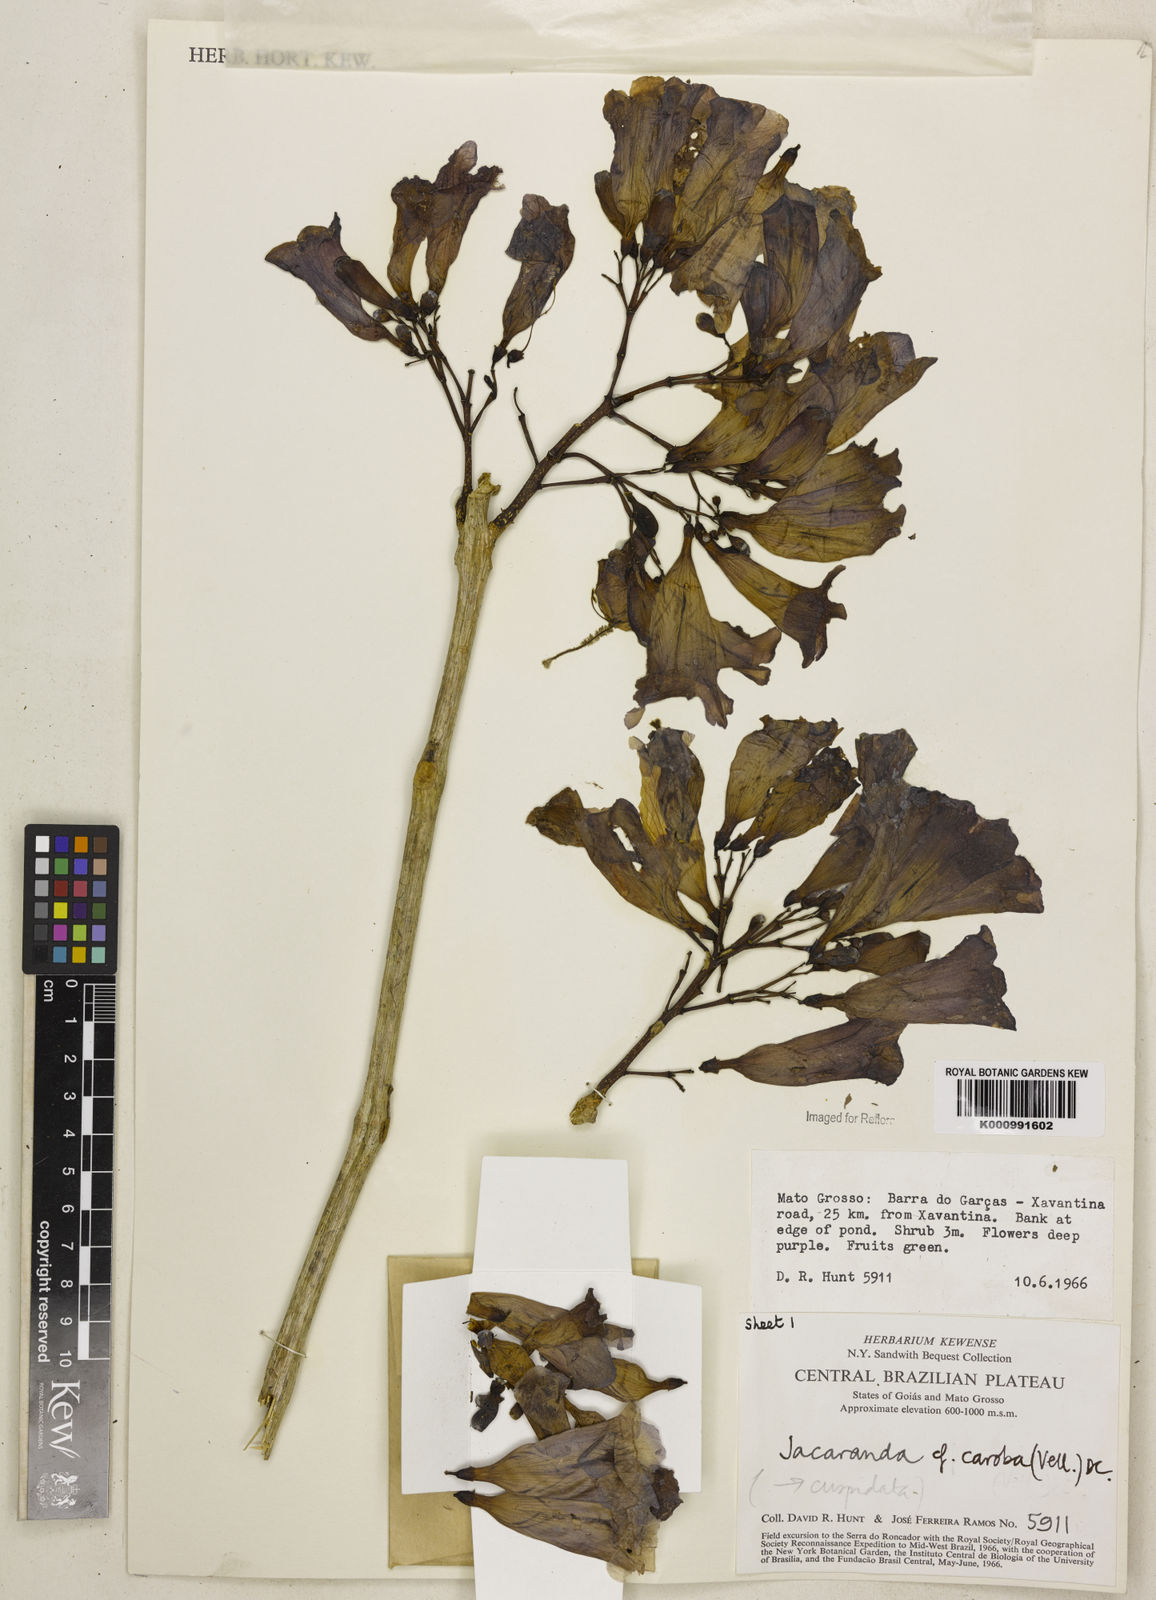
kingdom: Plantae
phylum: Tracheophyta
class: Magnoliopsida
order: Lamiales
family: Bignoniaceae
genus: Jacaranda
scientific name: Jacaranda caroba
